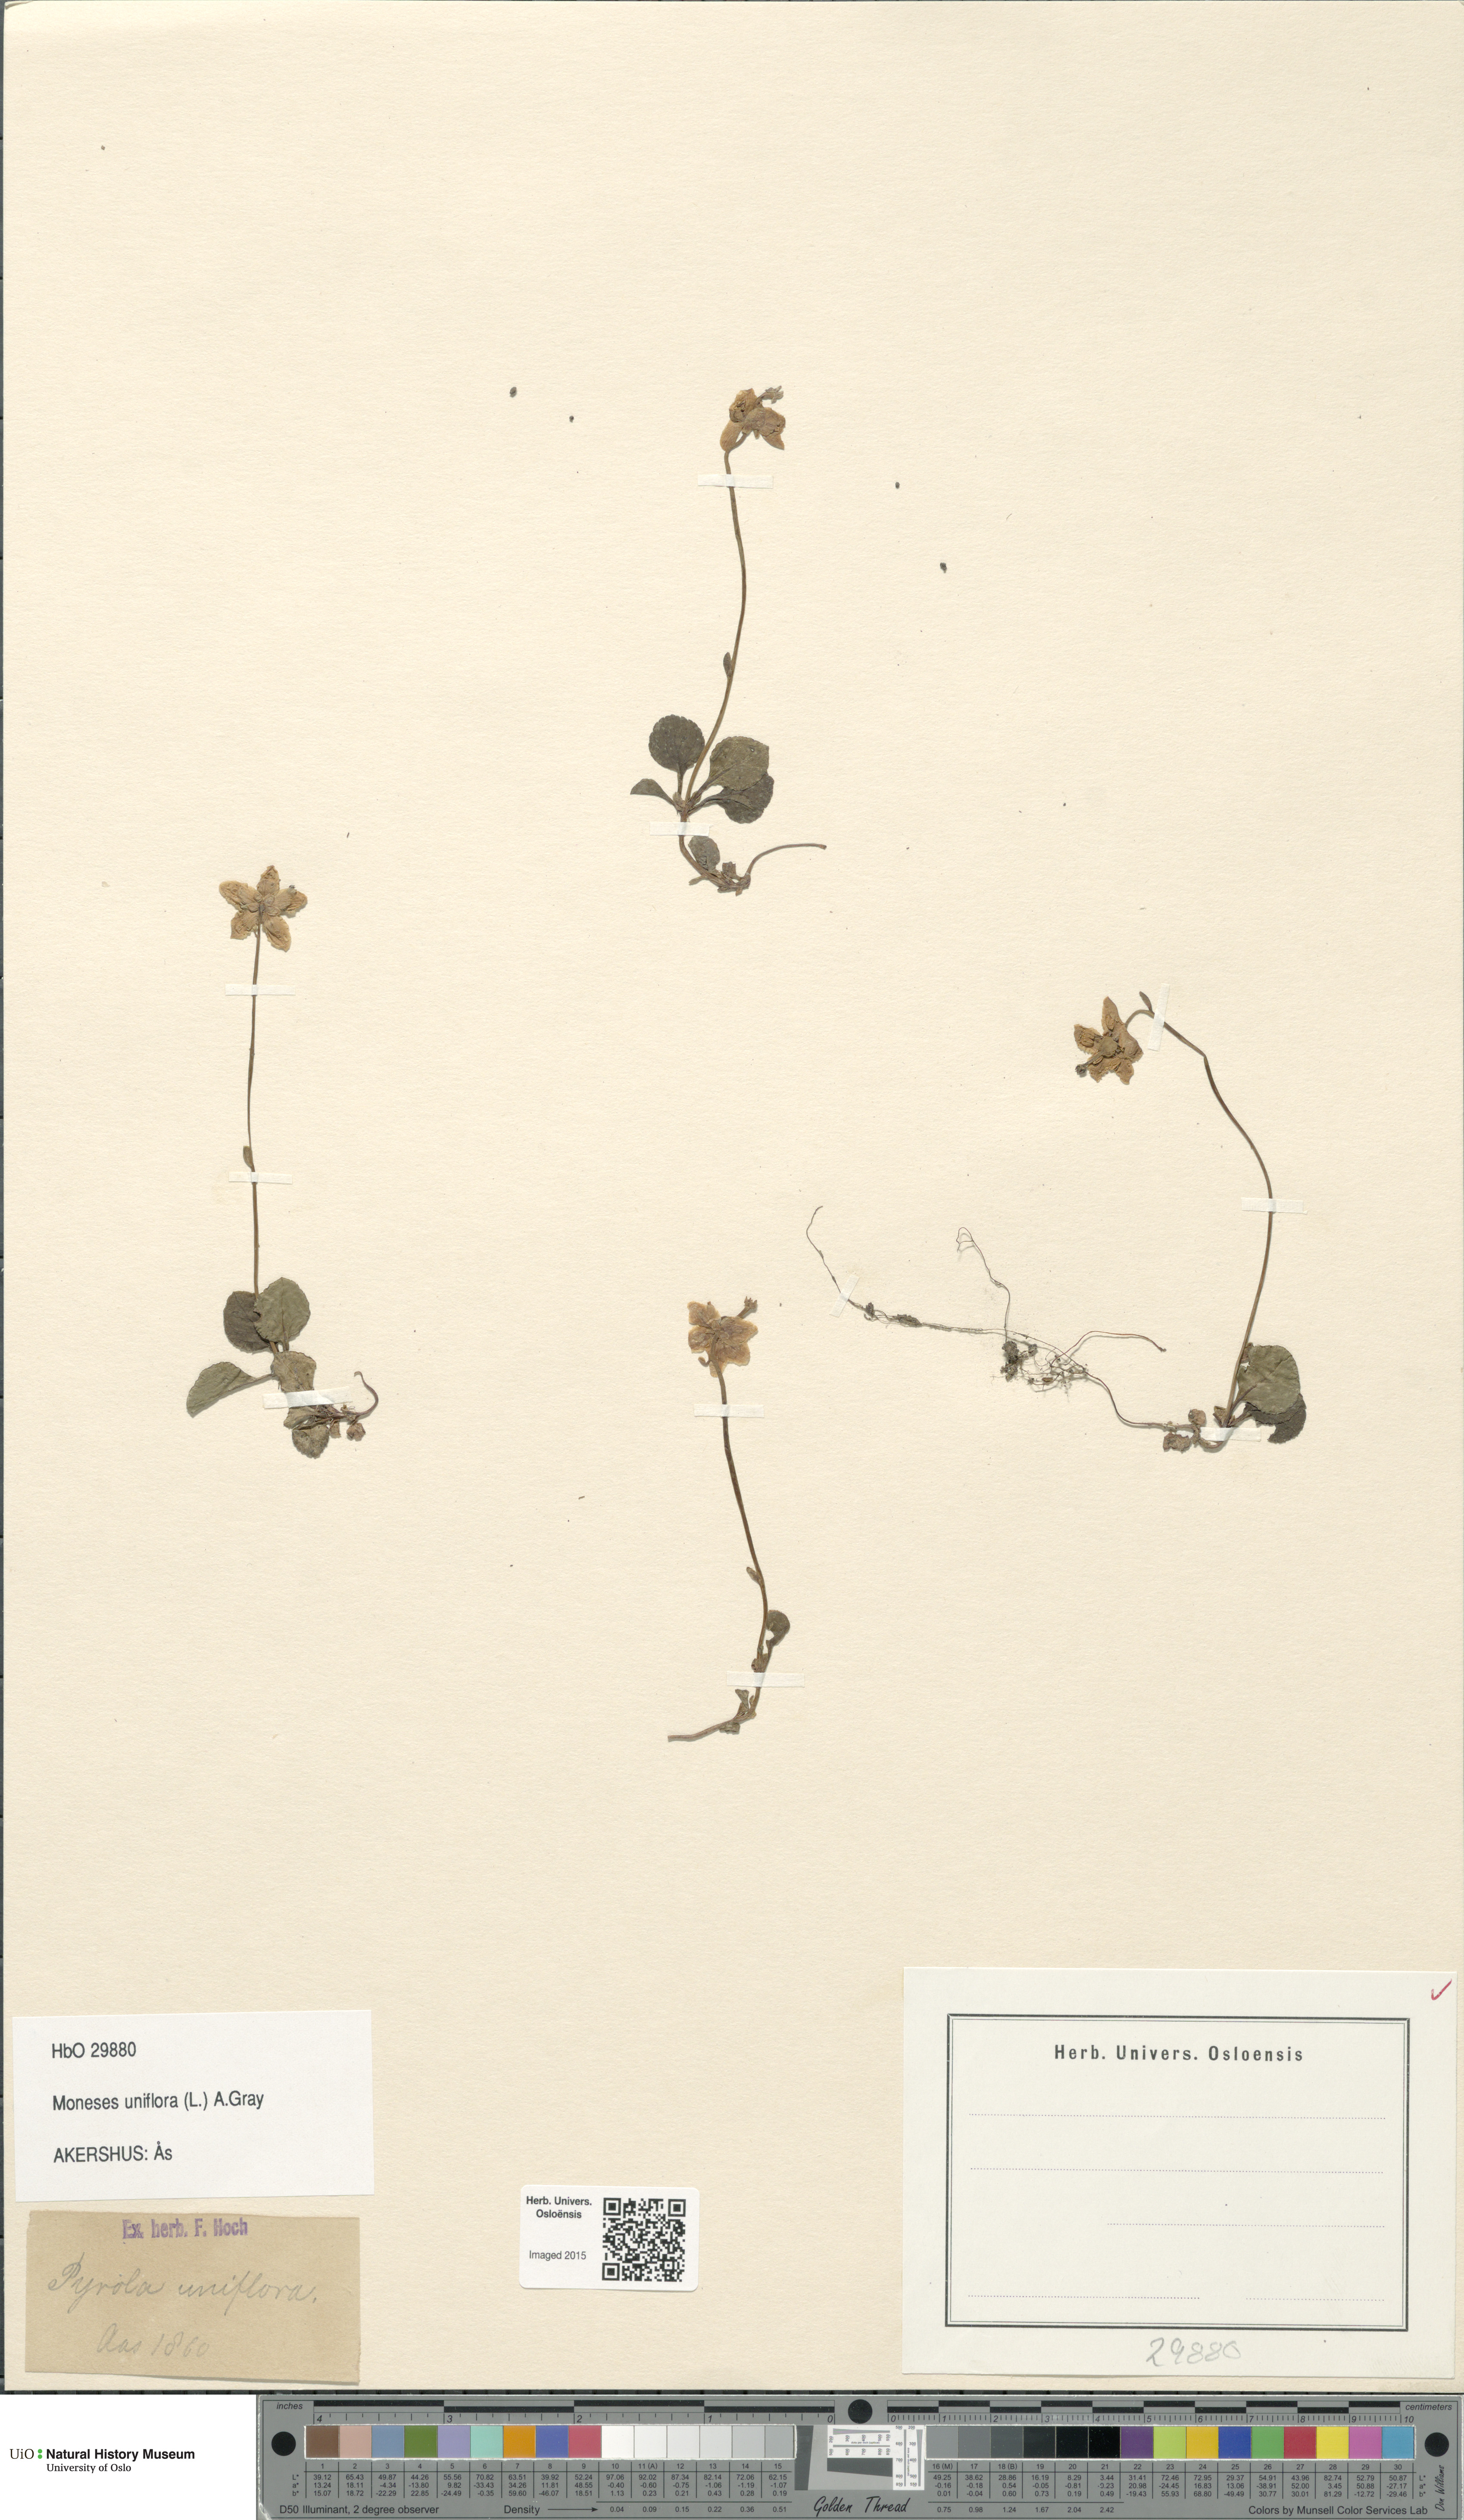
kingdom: Plantae
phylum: Tracheophyta
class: Magnoliopsida
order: Ericales
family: Ericaceae
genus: Moneses
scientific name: Moneses uniflora
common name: One-flowered wintergreen
